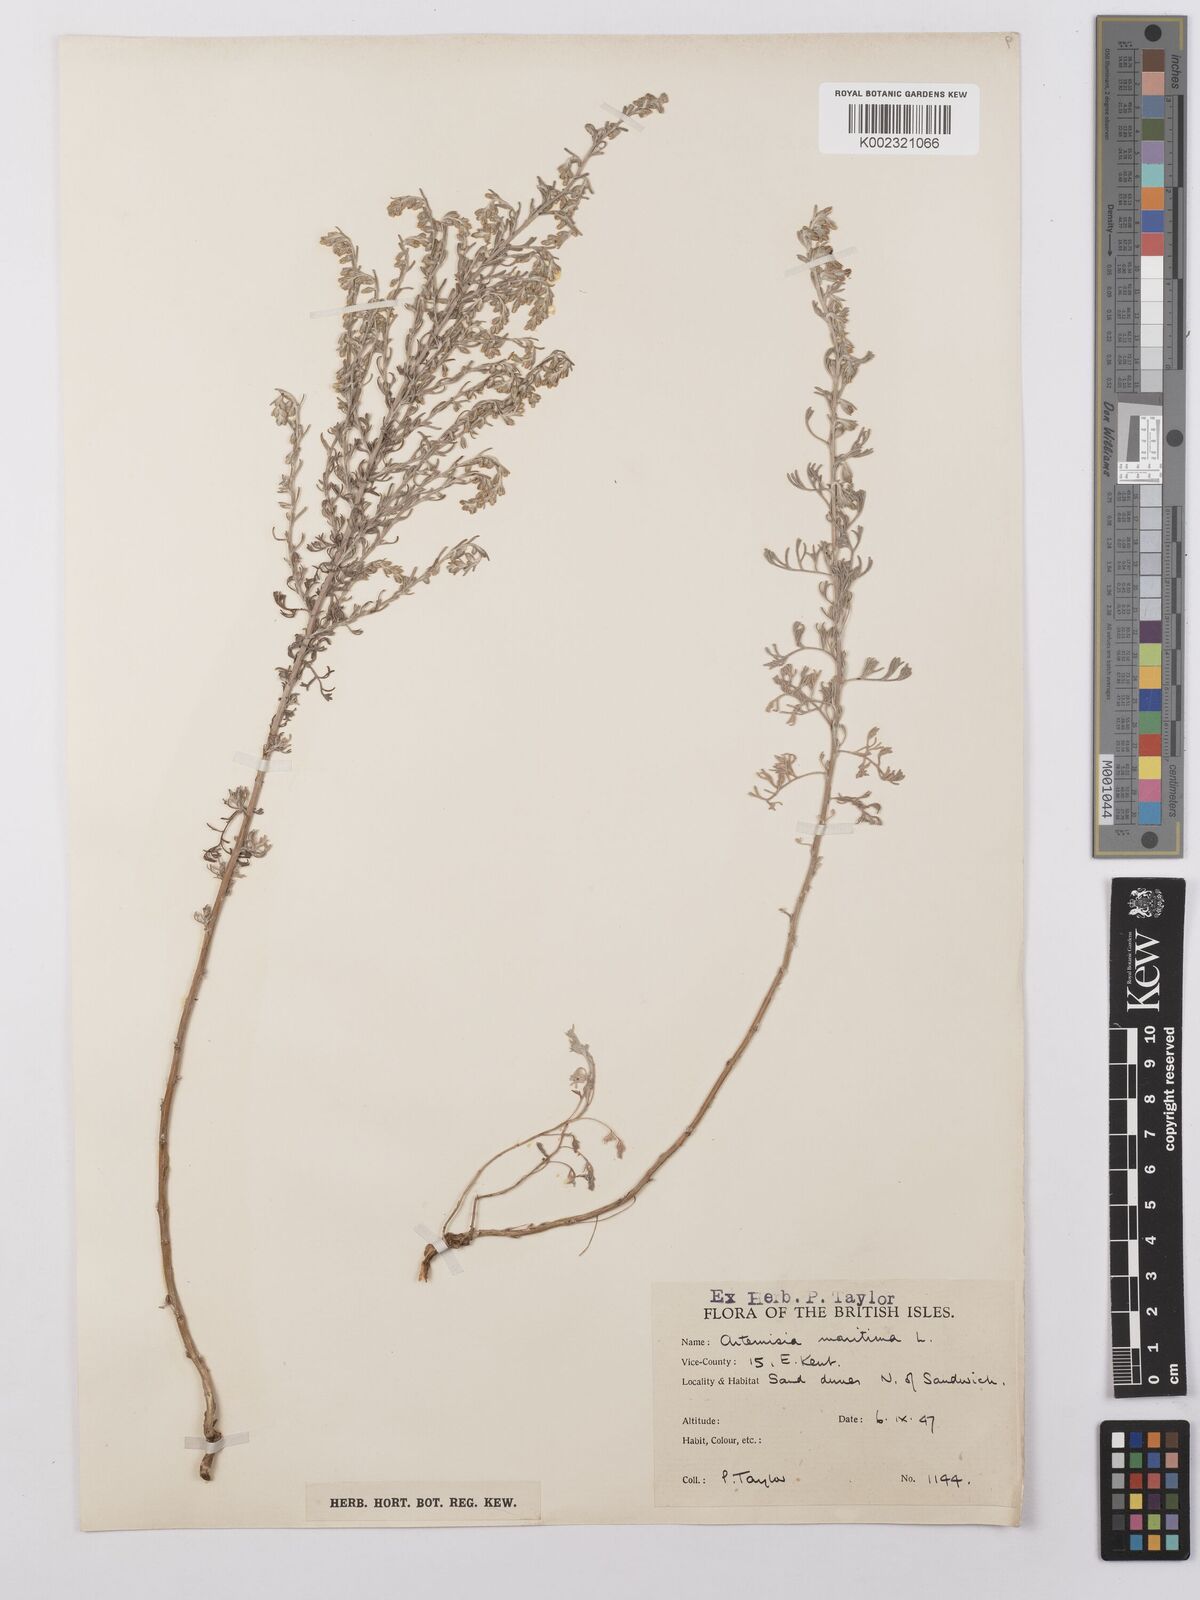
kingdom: Plantae
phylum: Tracheophyta
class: Magnoliopsida
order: Asterales
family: Asteraceae
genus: Artemisia
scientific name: Artemisia maritima
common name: Wormseed
